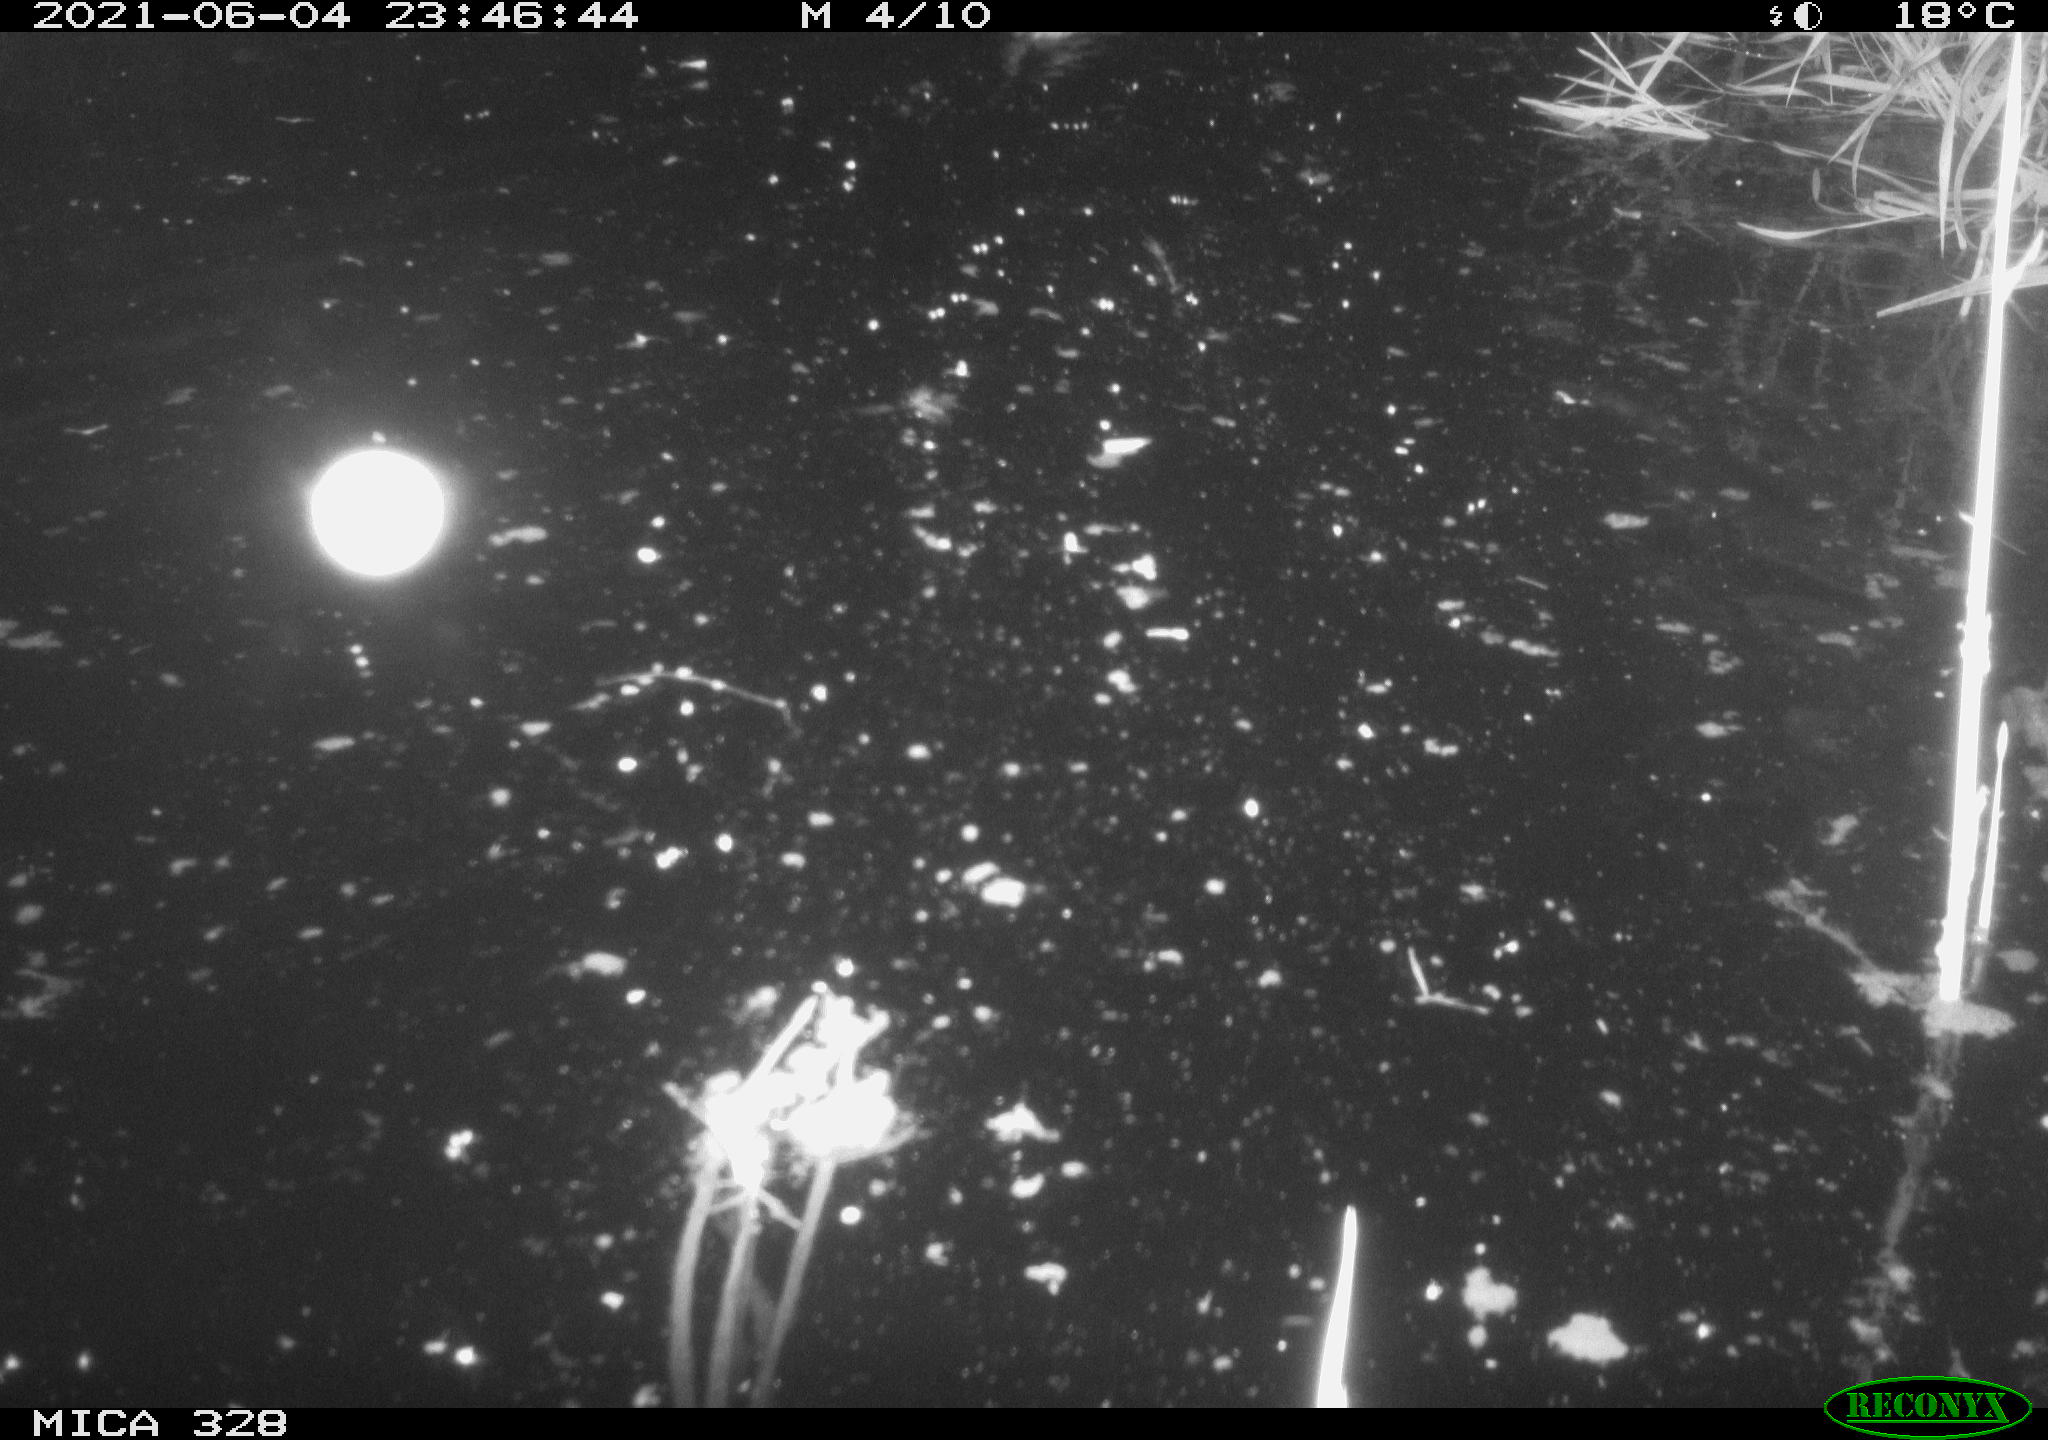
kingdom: Animalia
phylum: Chordata
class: Mammalia
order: Rodentia
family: Cricetidae
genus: Ondatra
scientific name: Ondatra zibethicus
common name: Muskrat
